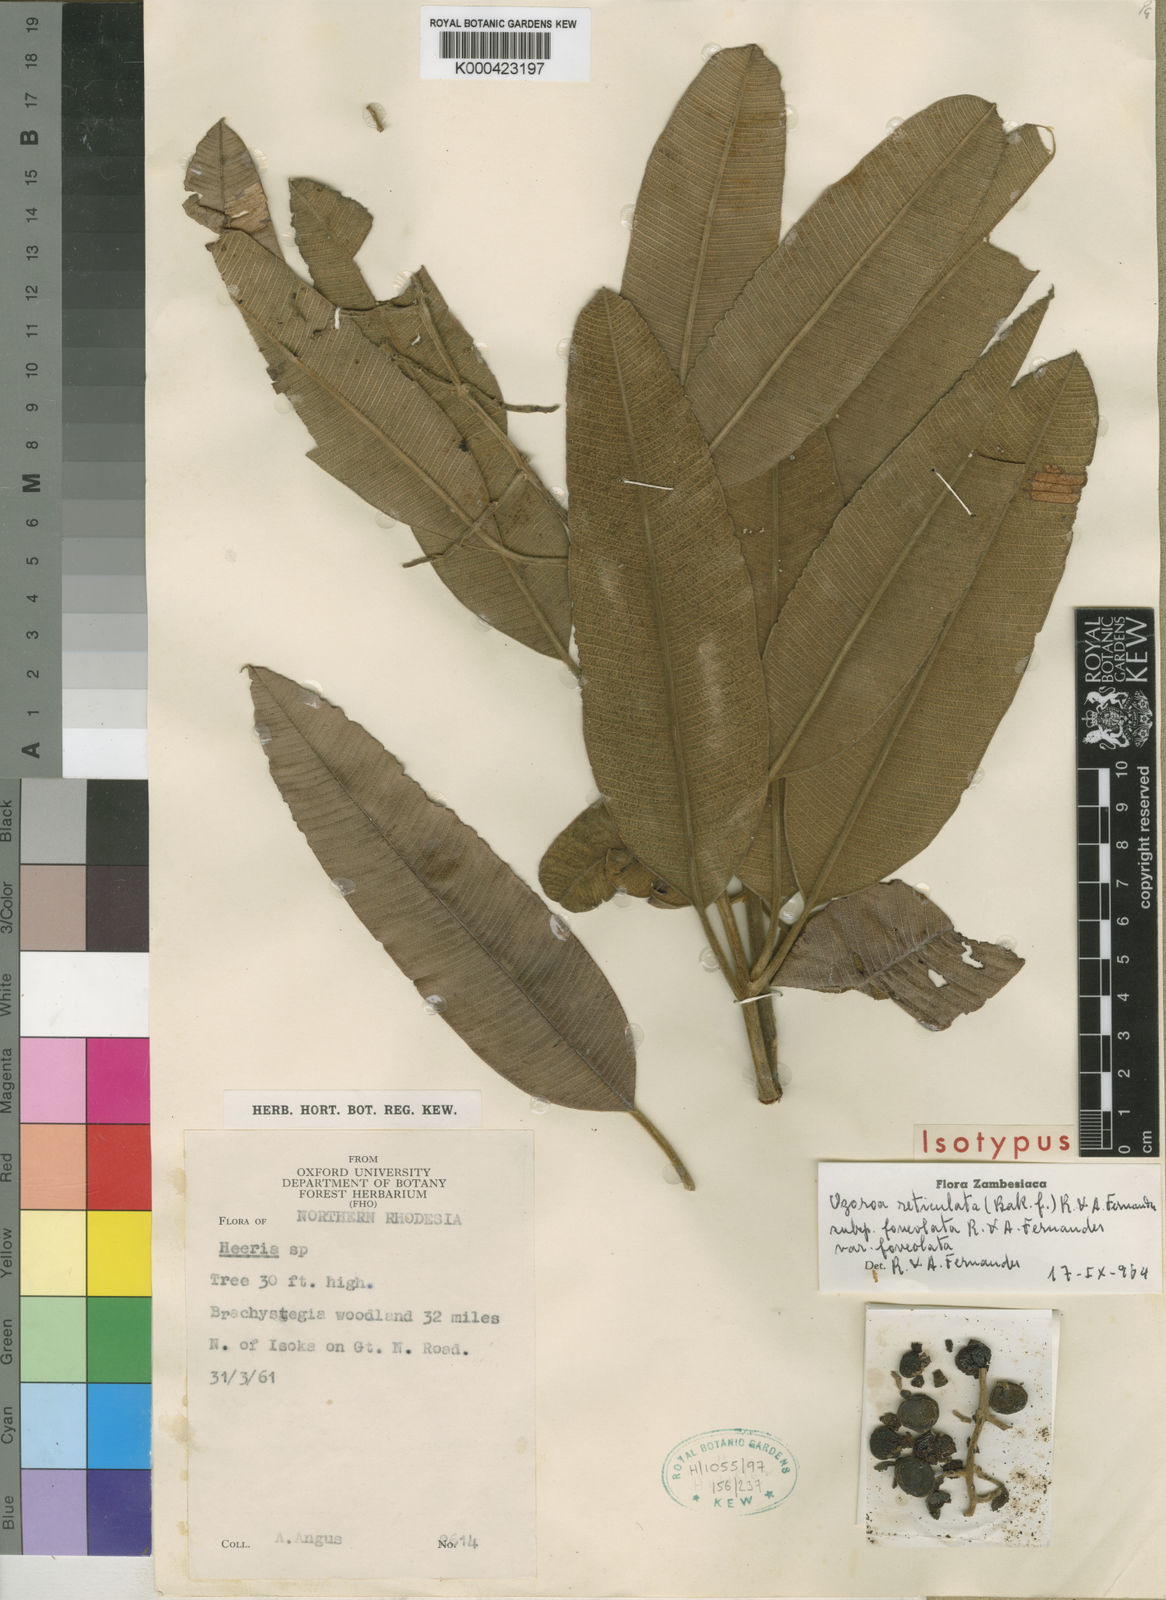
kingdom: Plantae
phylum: Tracheophyta
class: Magnoliopsida
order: Sapindales
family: Anacardiaceae
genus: Ozoroa
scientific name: Ozoroa insignis
